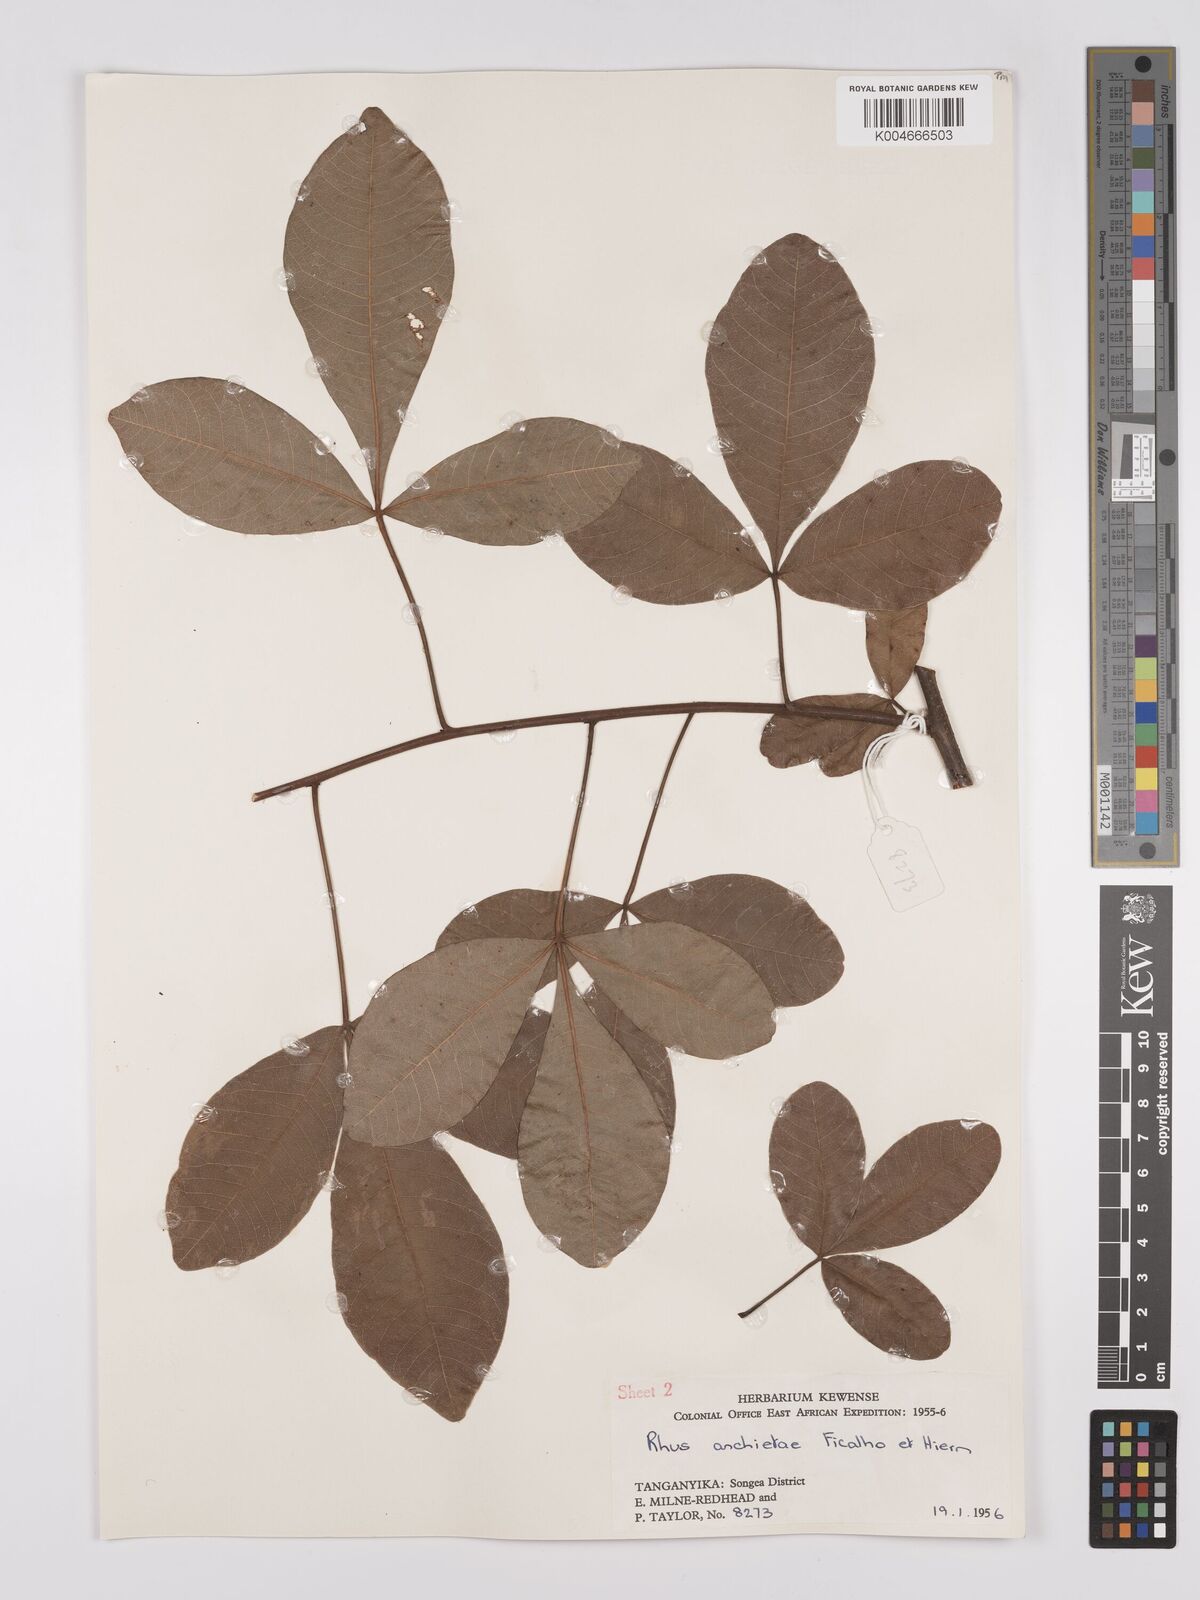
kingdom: Plantae
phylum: Tracheophyta
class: Magnoliopsida
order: Sapindales
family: Anacardiaceae
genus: Searsia
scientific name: Searsia anchietae
